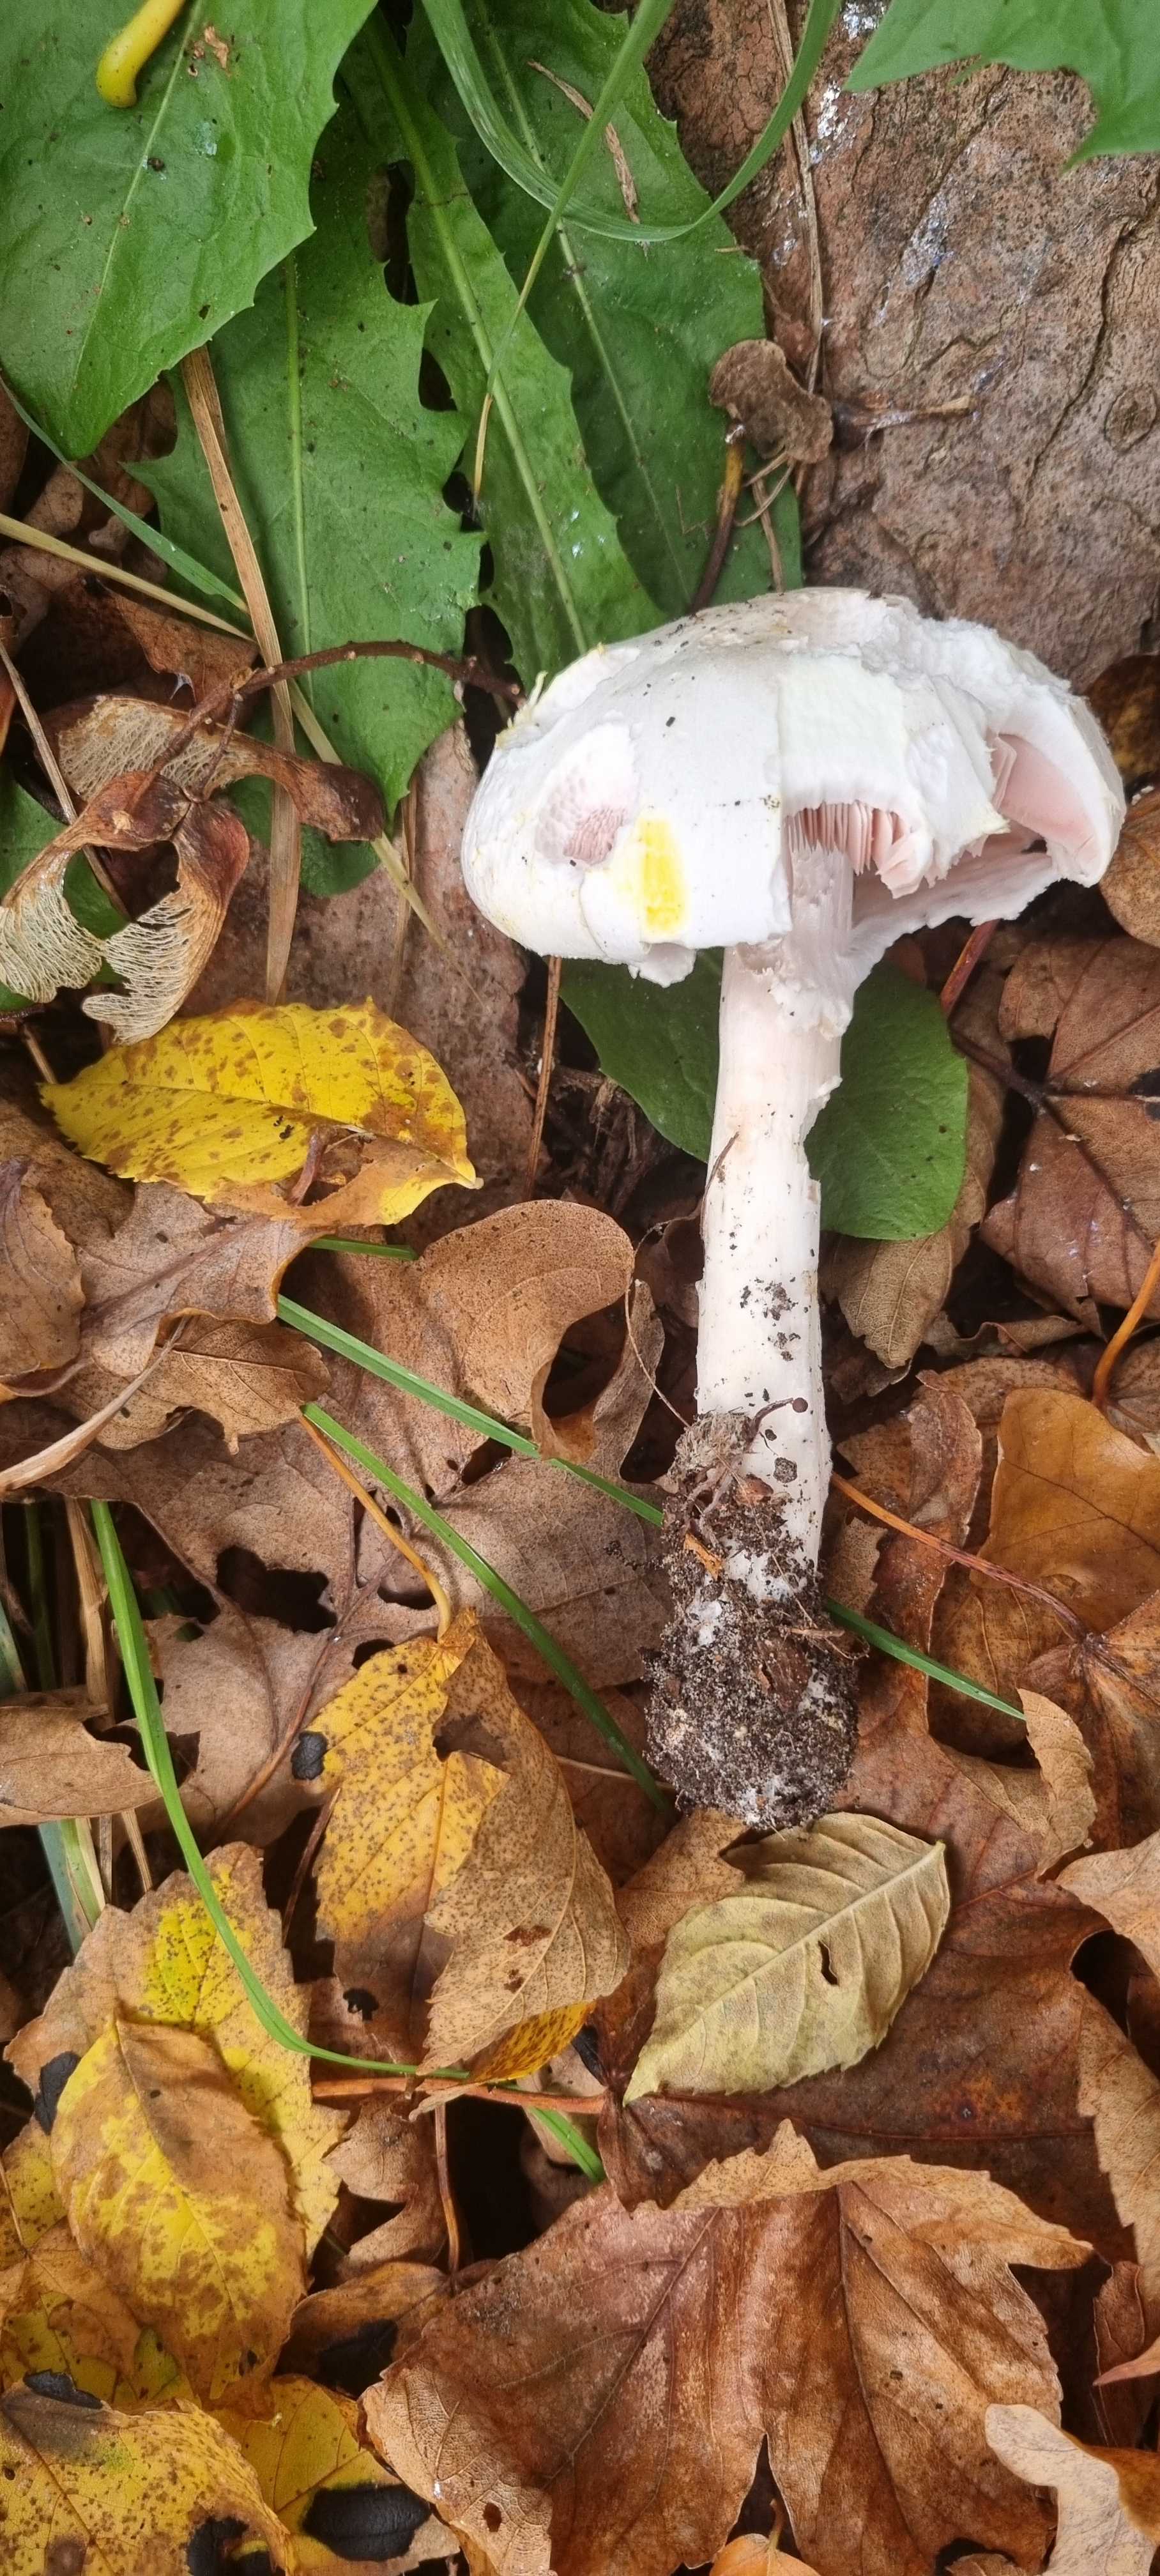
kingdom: Fungi
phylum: Basidiomycota
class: Agaricomycetes
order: Agaricales
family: Agaricaceae
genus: Agaricus
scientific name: Agaricus xanthodermus
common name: karbol-champignon
